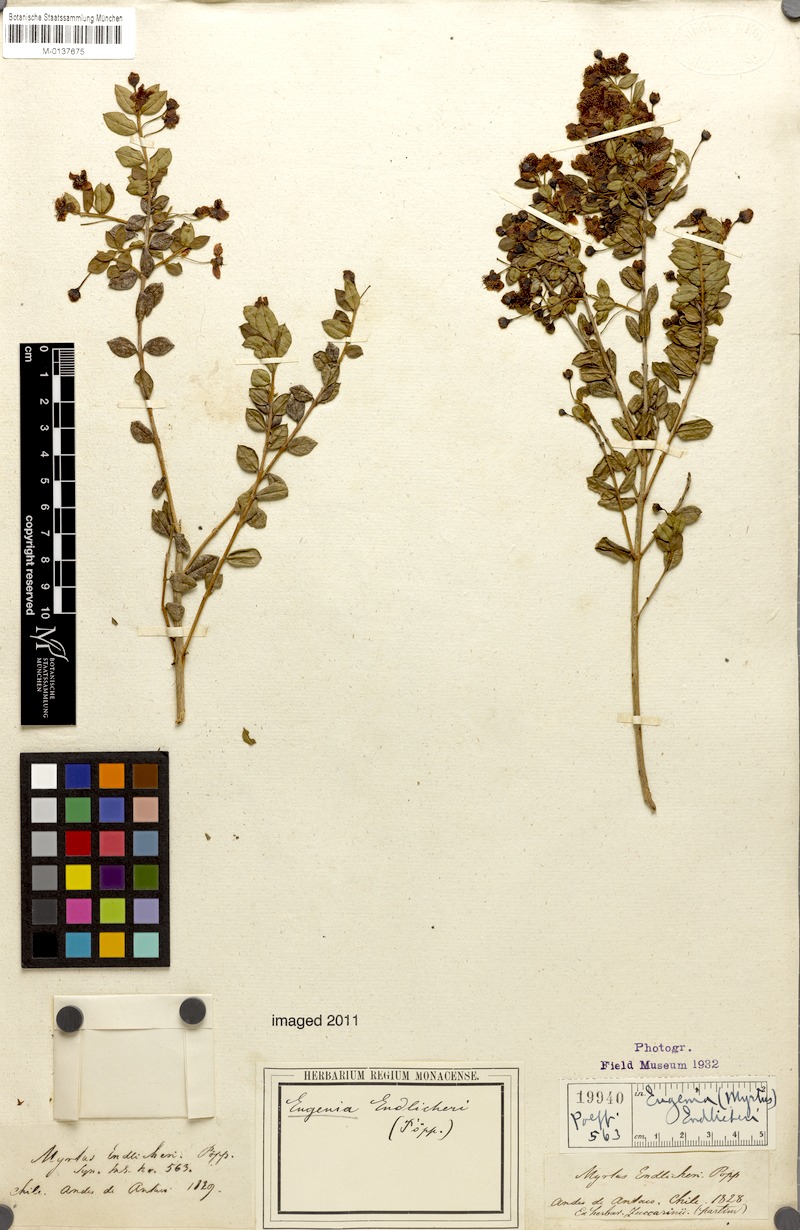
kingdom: Plantae
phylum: Tracheophyta
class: Magnoliopsida
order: Myrtales
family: Myrtaceae
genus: Eugenia
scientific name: Eugenia endlicheri
